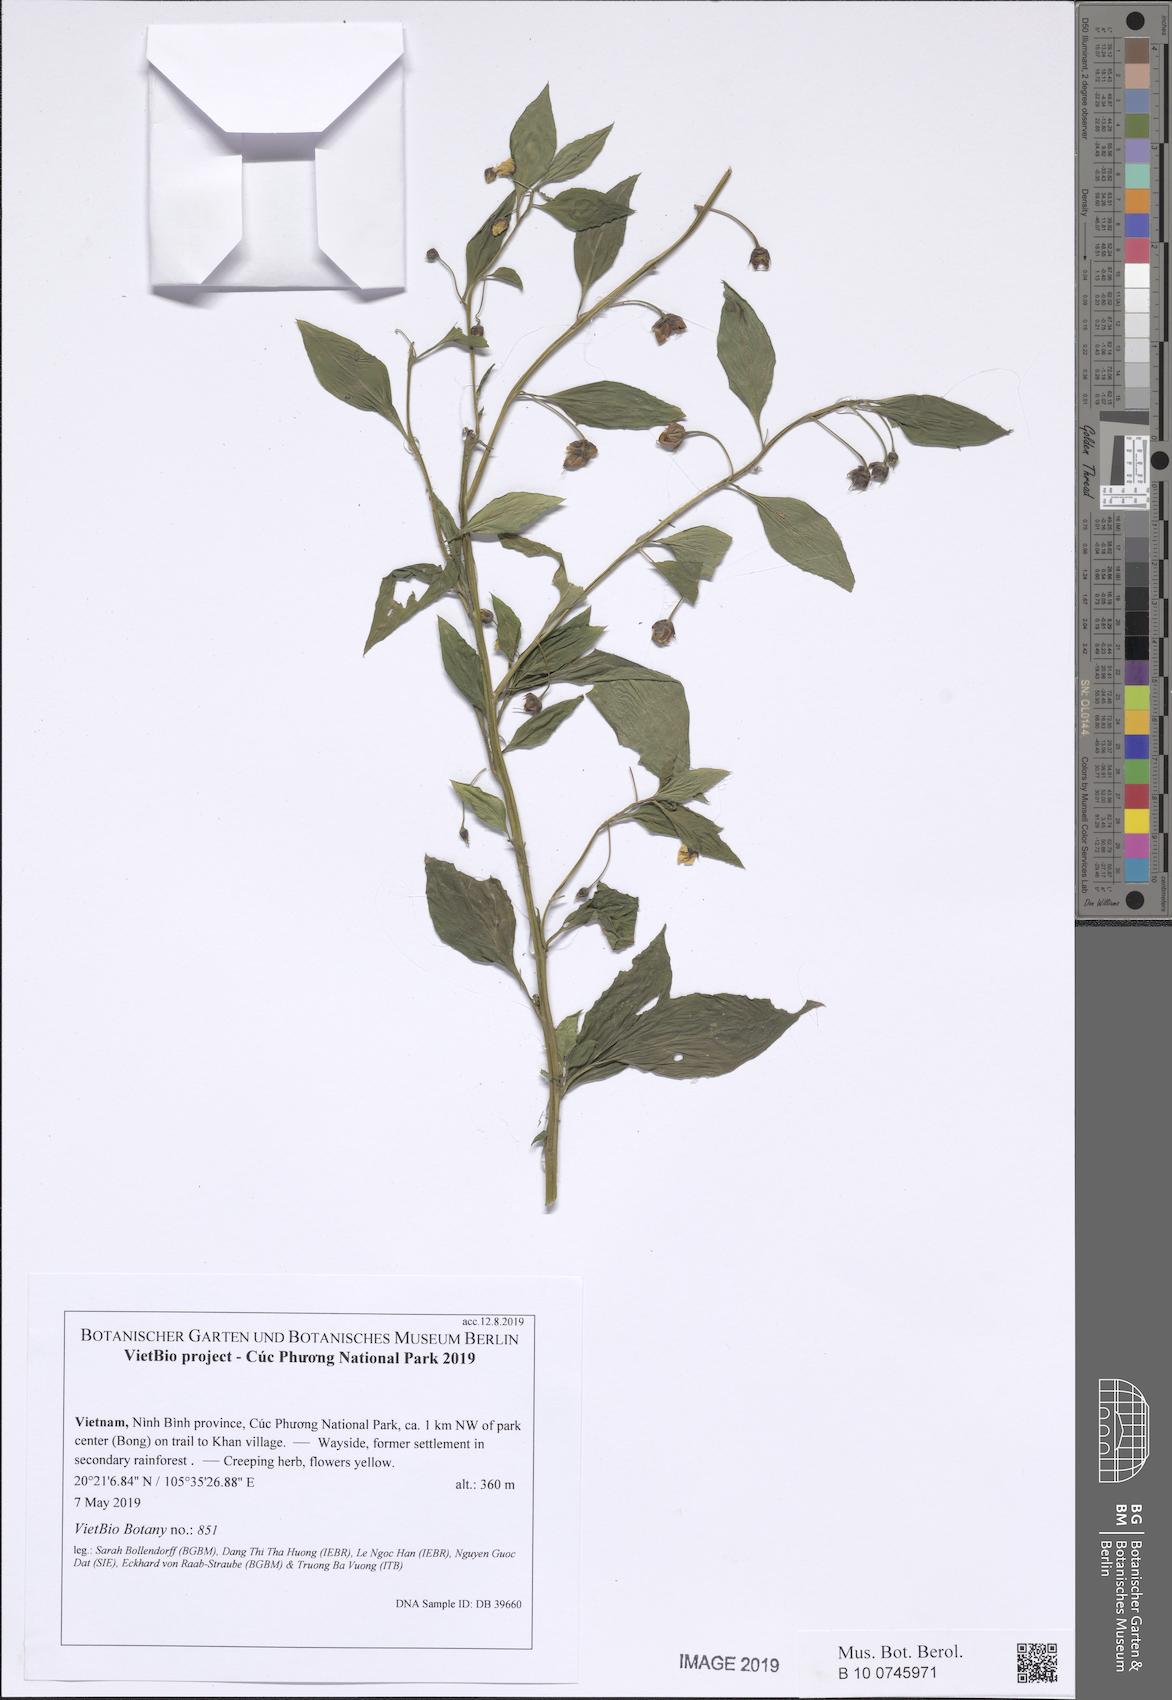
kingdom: Plantae
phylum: Tracheophyta
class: Magnoliopsida
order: Ericales
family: Primulaceae
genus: Lysimachia
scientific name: Lysimachia petelotii
